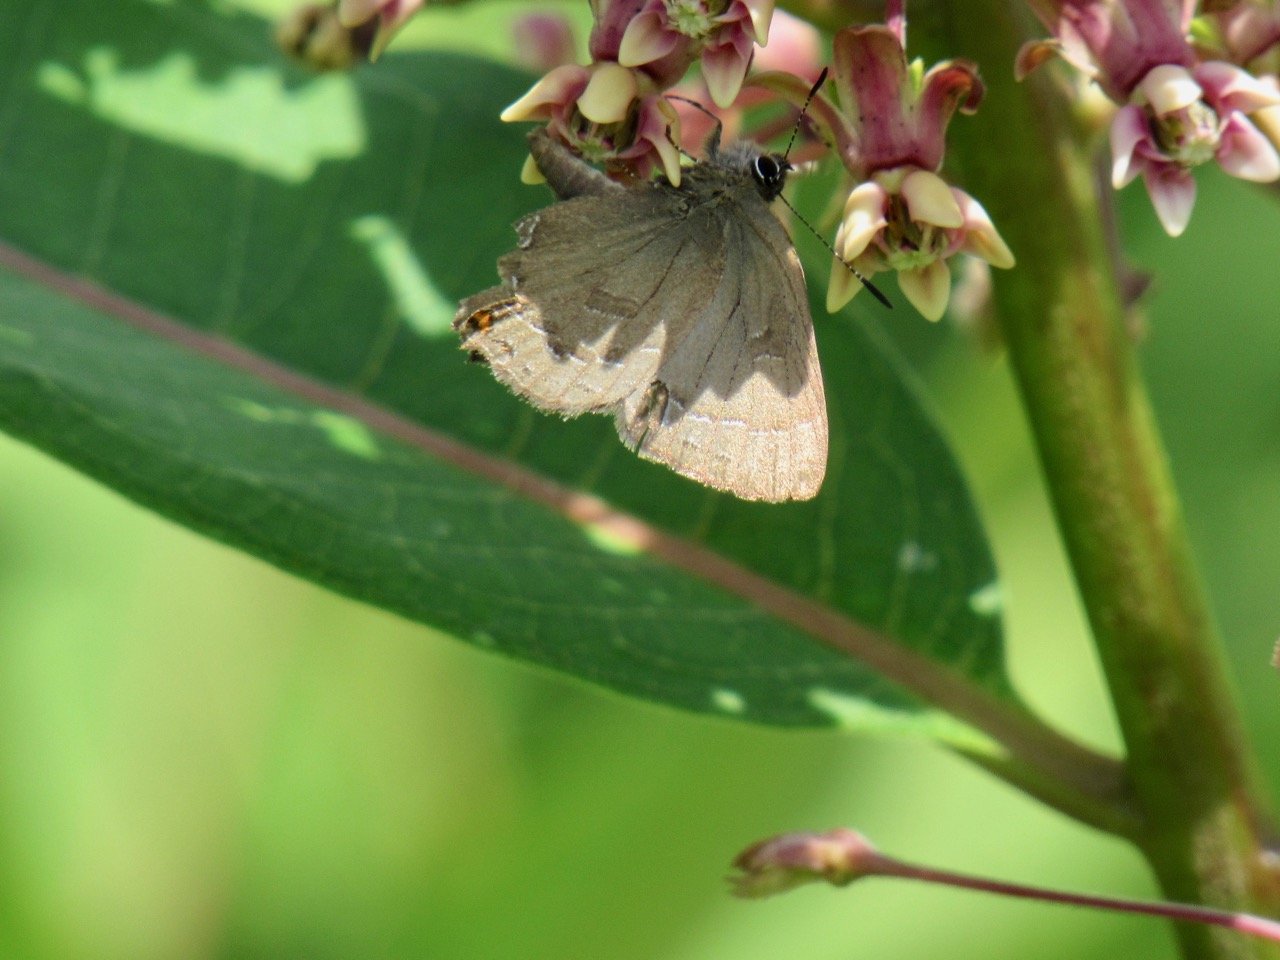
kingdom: Animalia
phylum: Arthropoda
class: Insecta
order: Lepidoptera
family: Lycaenidae
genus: Satyrium
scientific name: Satyrium calanus
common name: Banded Hairstreak
